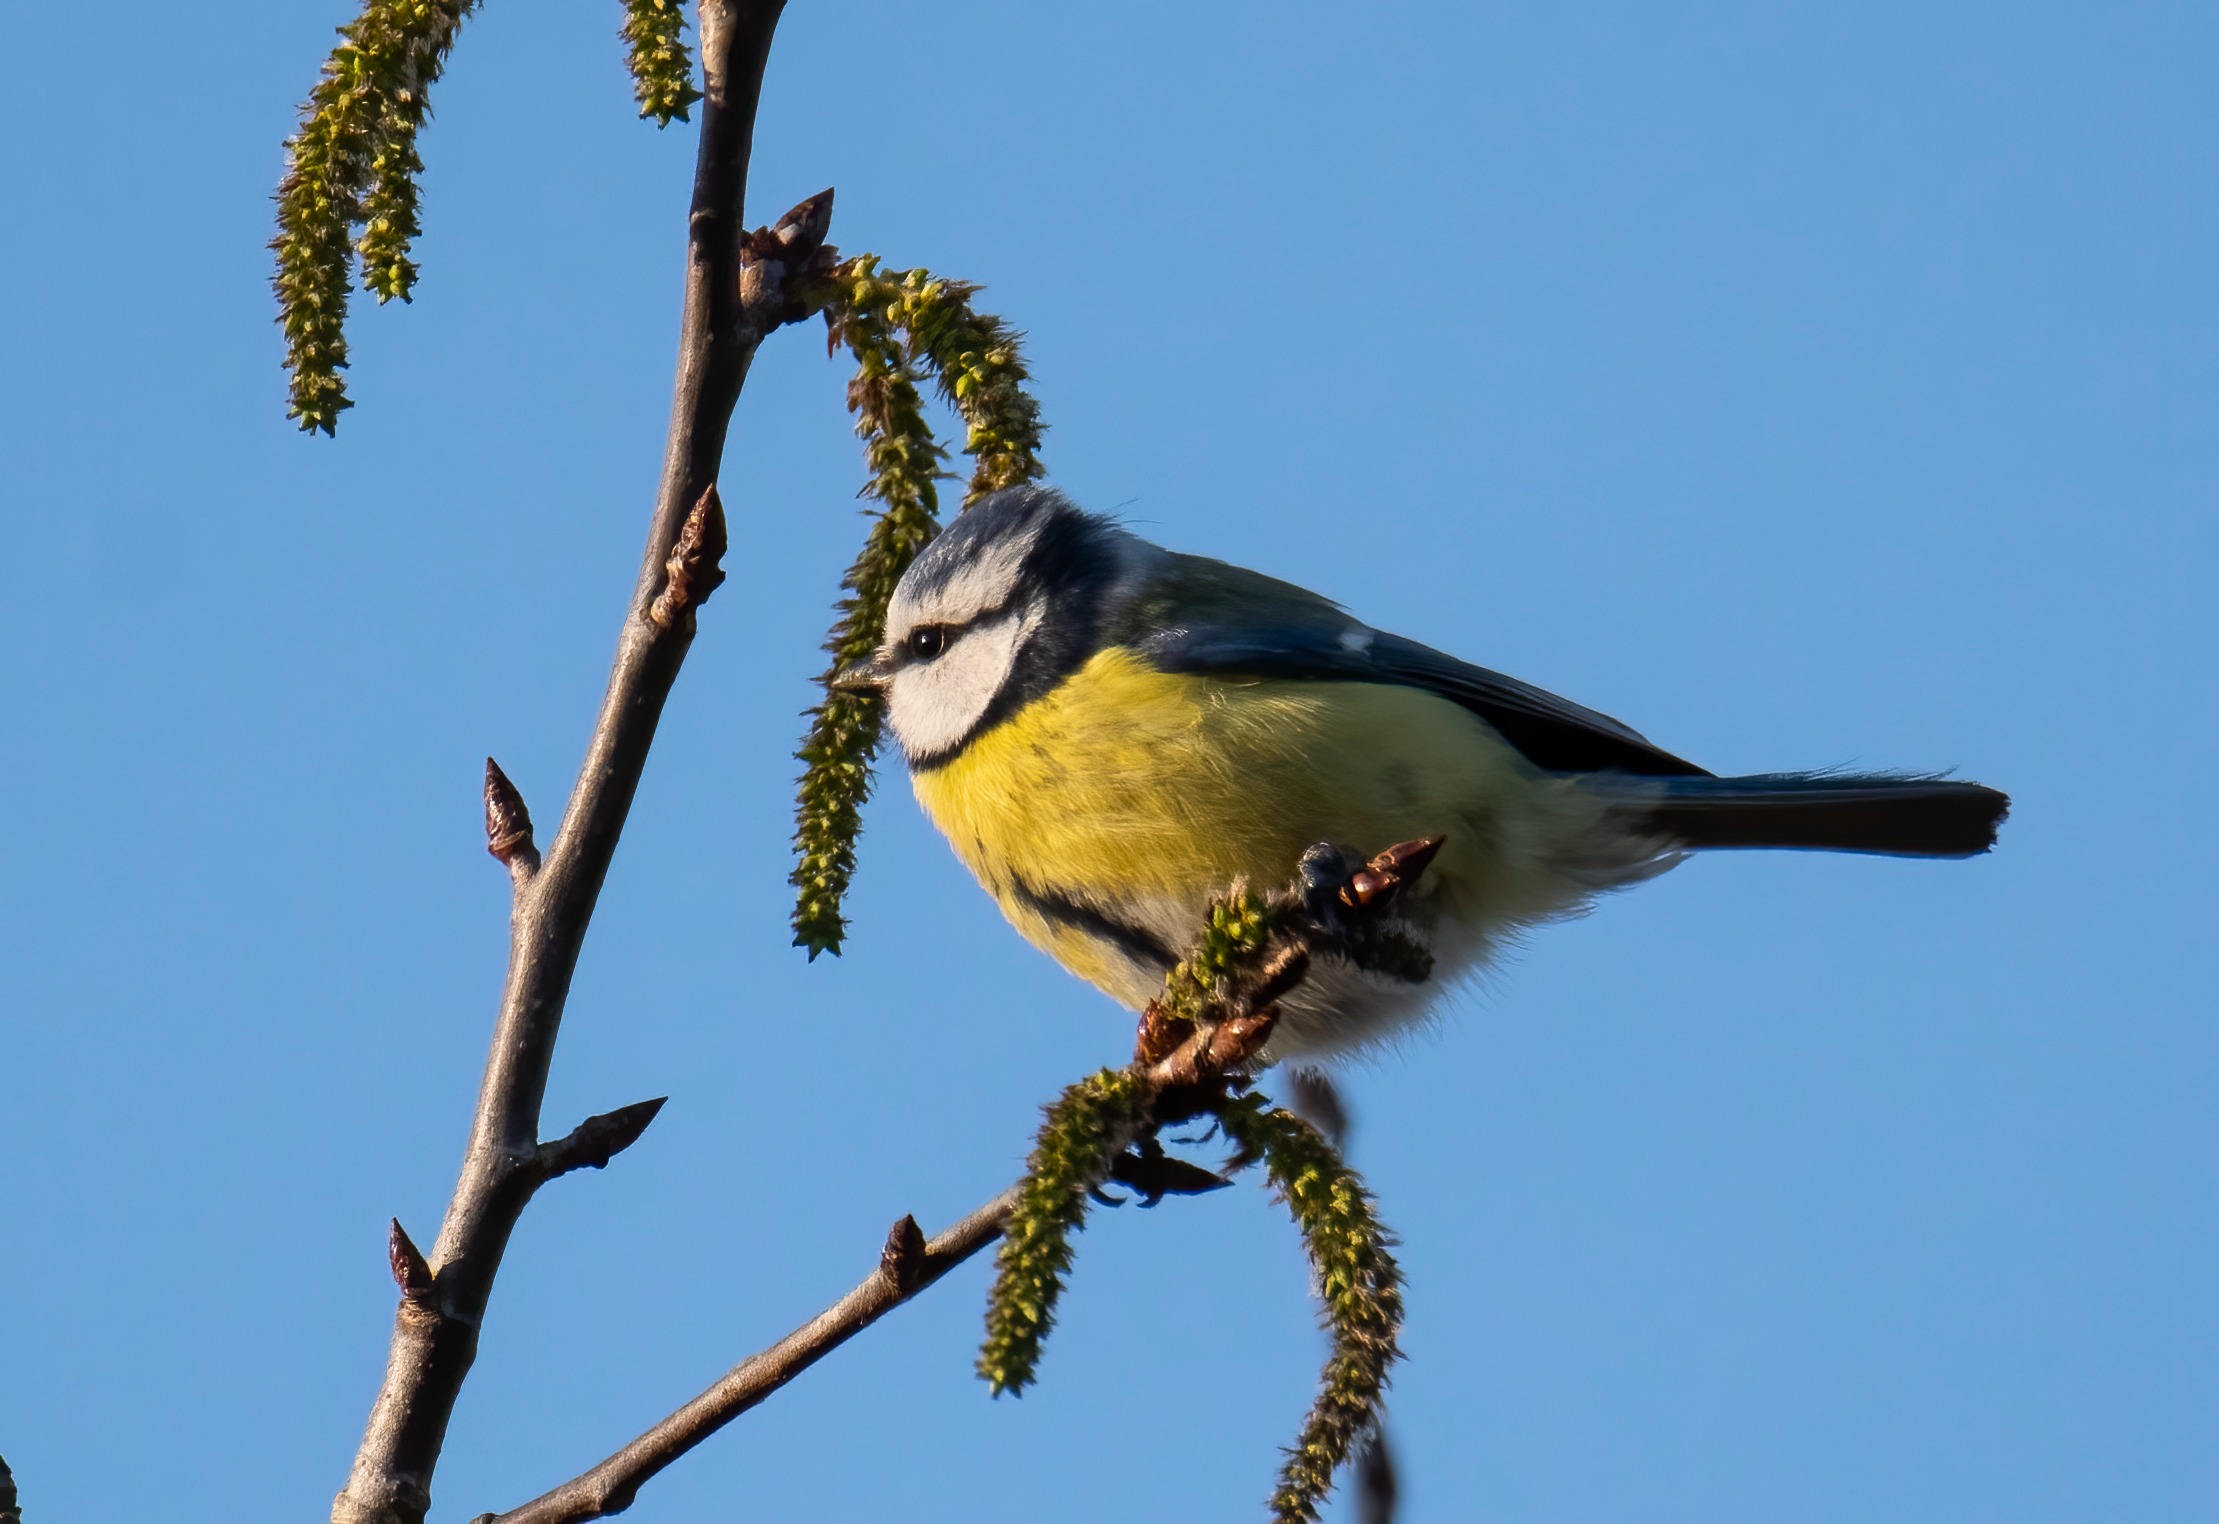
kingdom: Animalia
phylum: Chordata
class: Aves
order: Passeriformes
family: Paridae
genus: Cyanistes
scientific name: Cyanistes caeruleus
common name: Blåmejse
